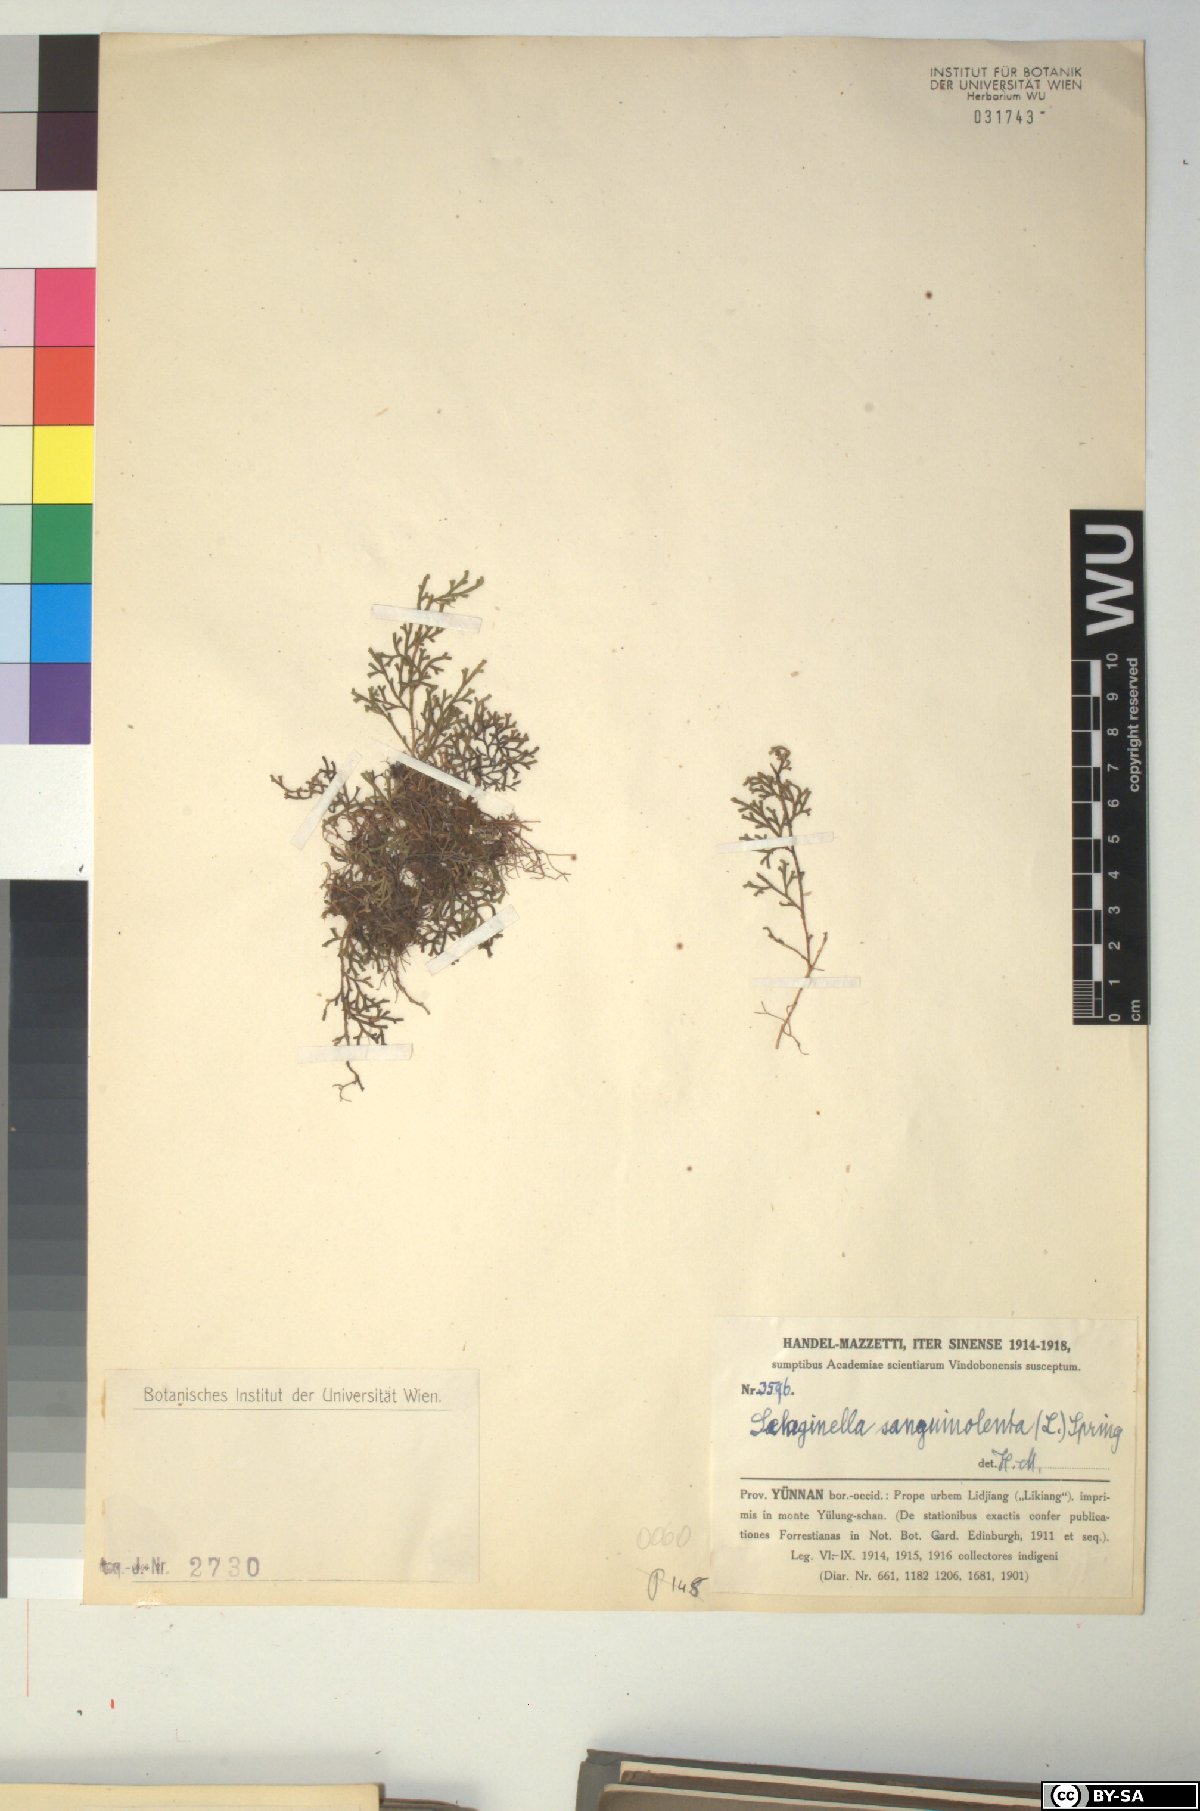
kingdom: Plantae
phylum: Tracheophyta
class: Lycopodiopsida
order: Selaginellales
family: Selaginellaceae
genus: Selaginella
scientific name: Selaginella sanguinolenta
